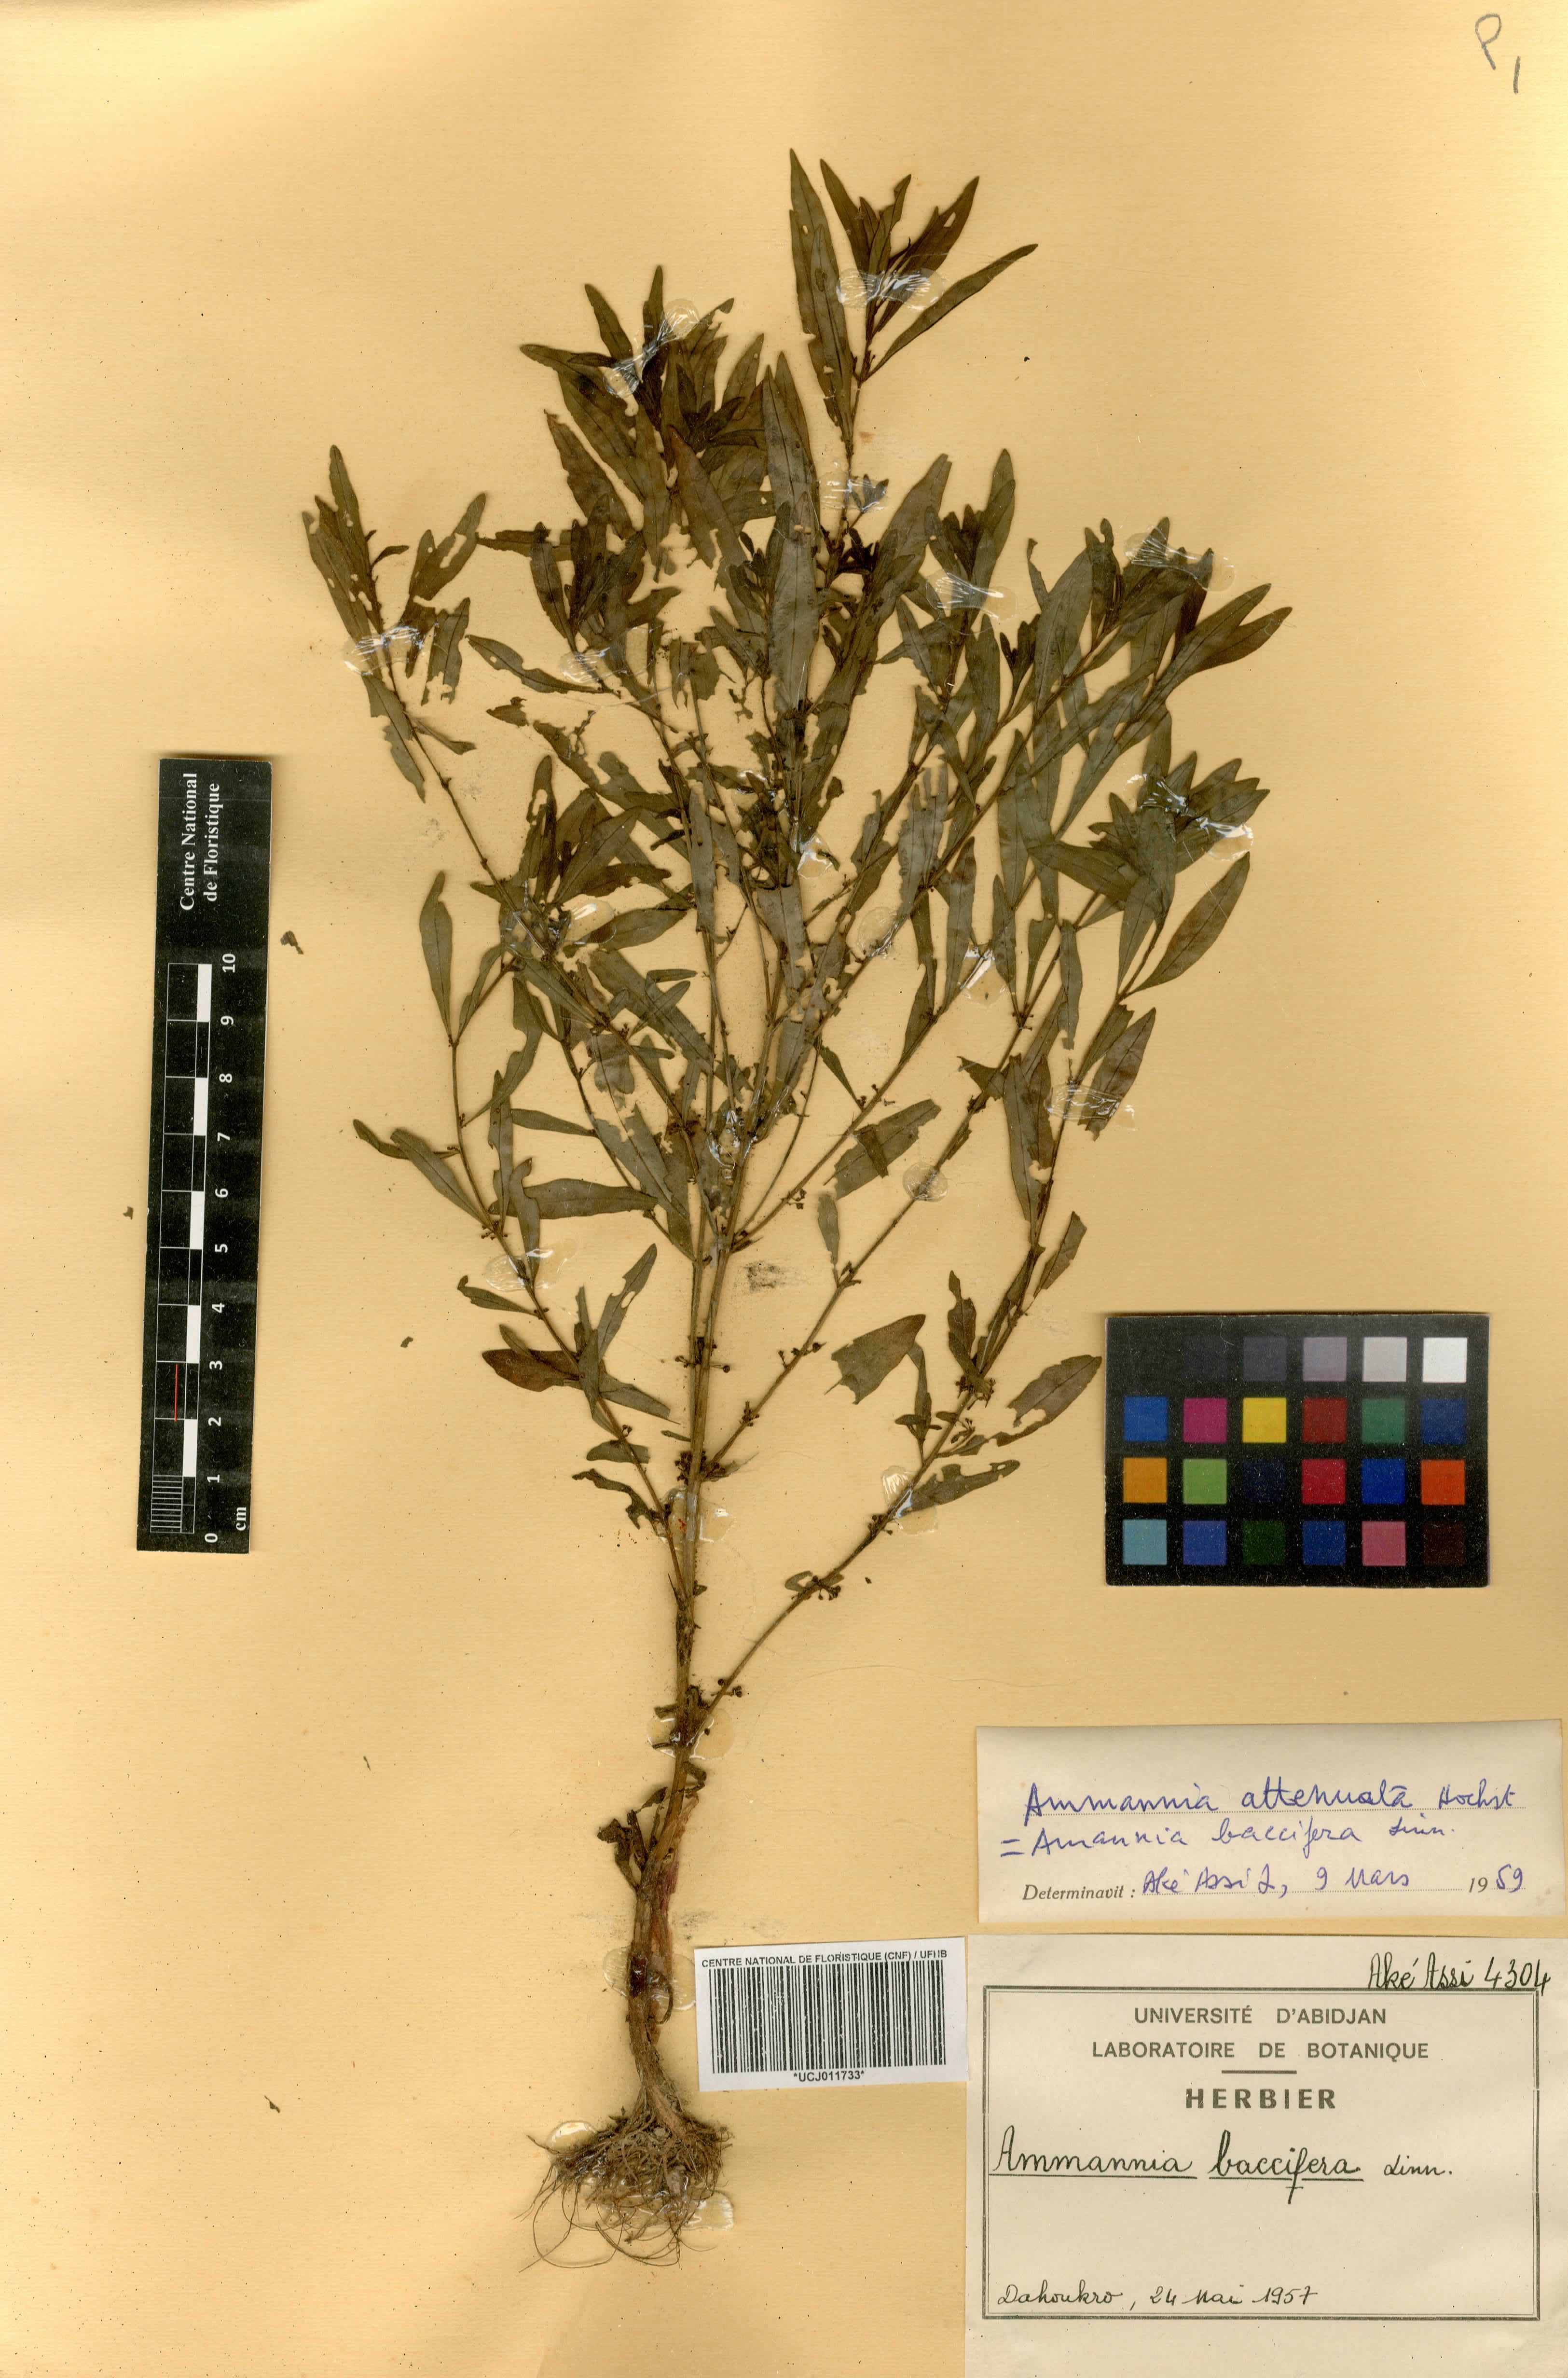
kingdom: Plantae
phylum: Tracheophyta
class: Magnoliopsida
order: Myrtales
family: Lythraceae
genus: Ammannia
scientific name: Ammannia baccifera
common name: Blistering ammania
